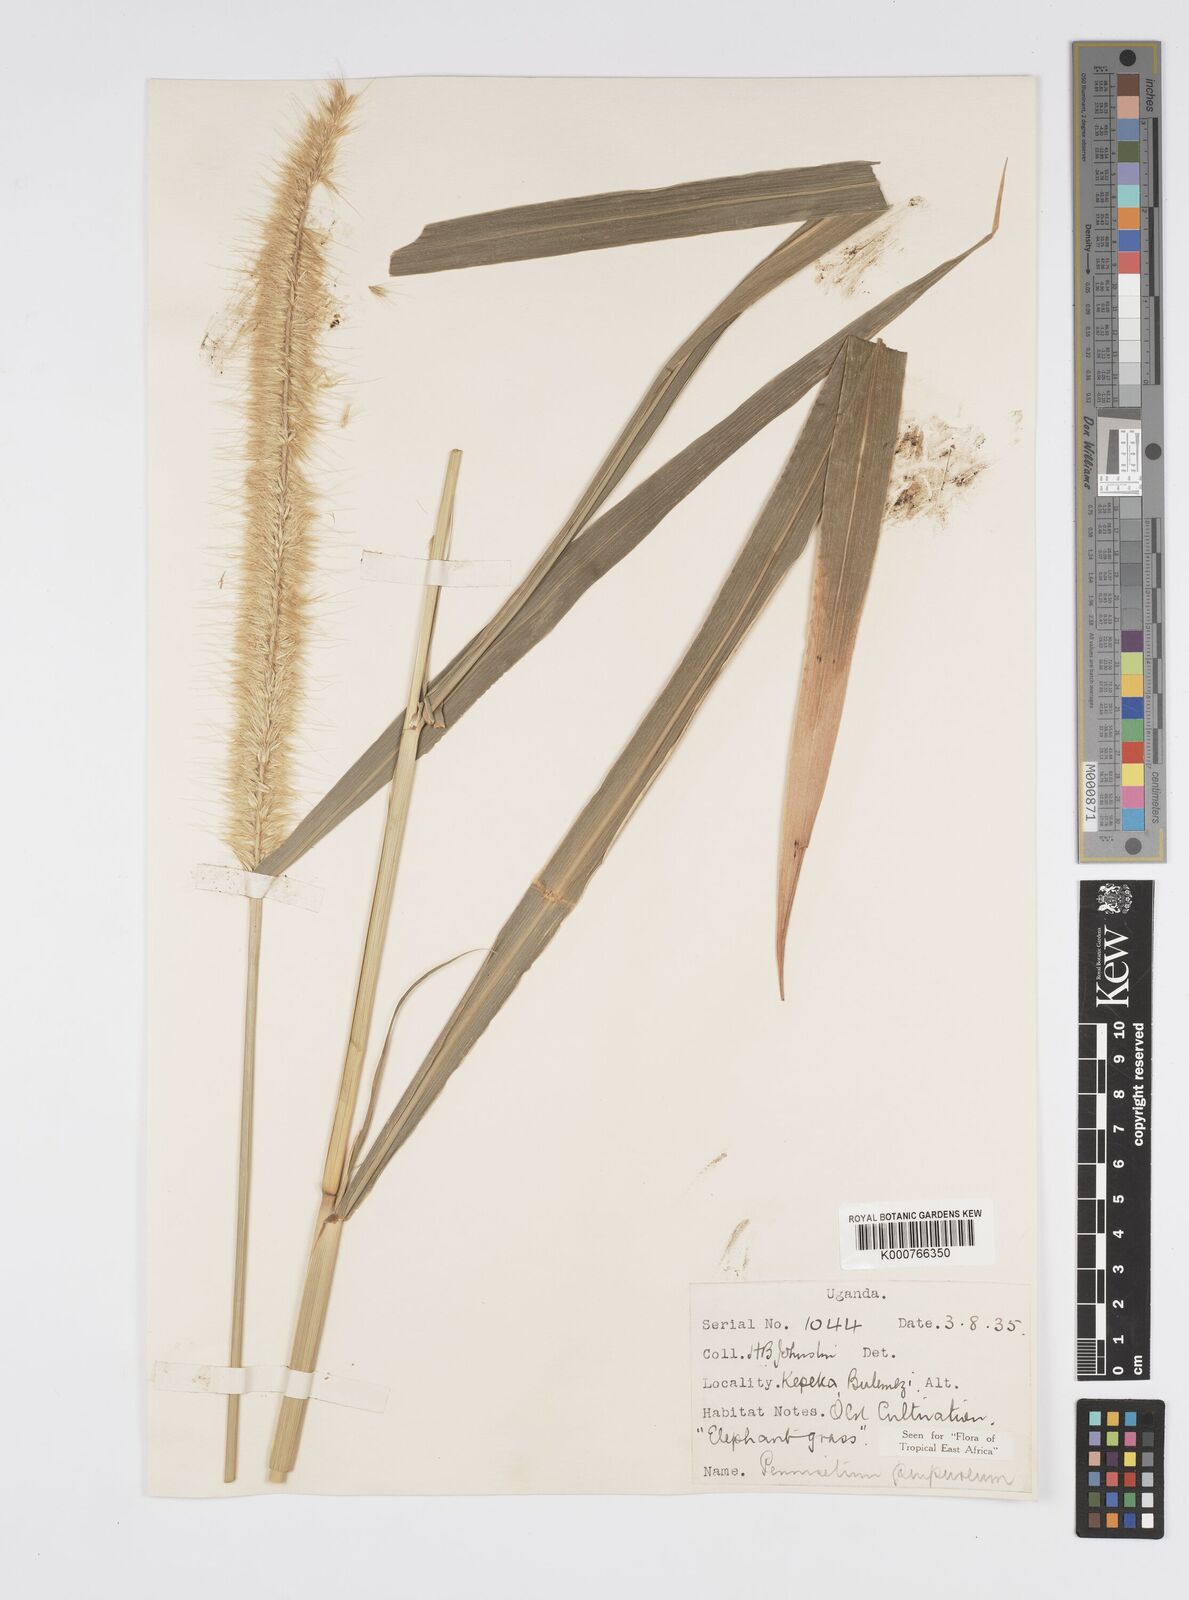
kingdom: Plantae
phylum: Tracheophyta
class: Liliopsida
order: Poales
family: Poaceae
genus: Cenchrus
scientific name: Cenchrus purpureus
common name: Elephant grass
